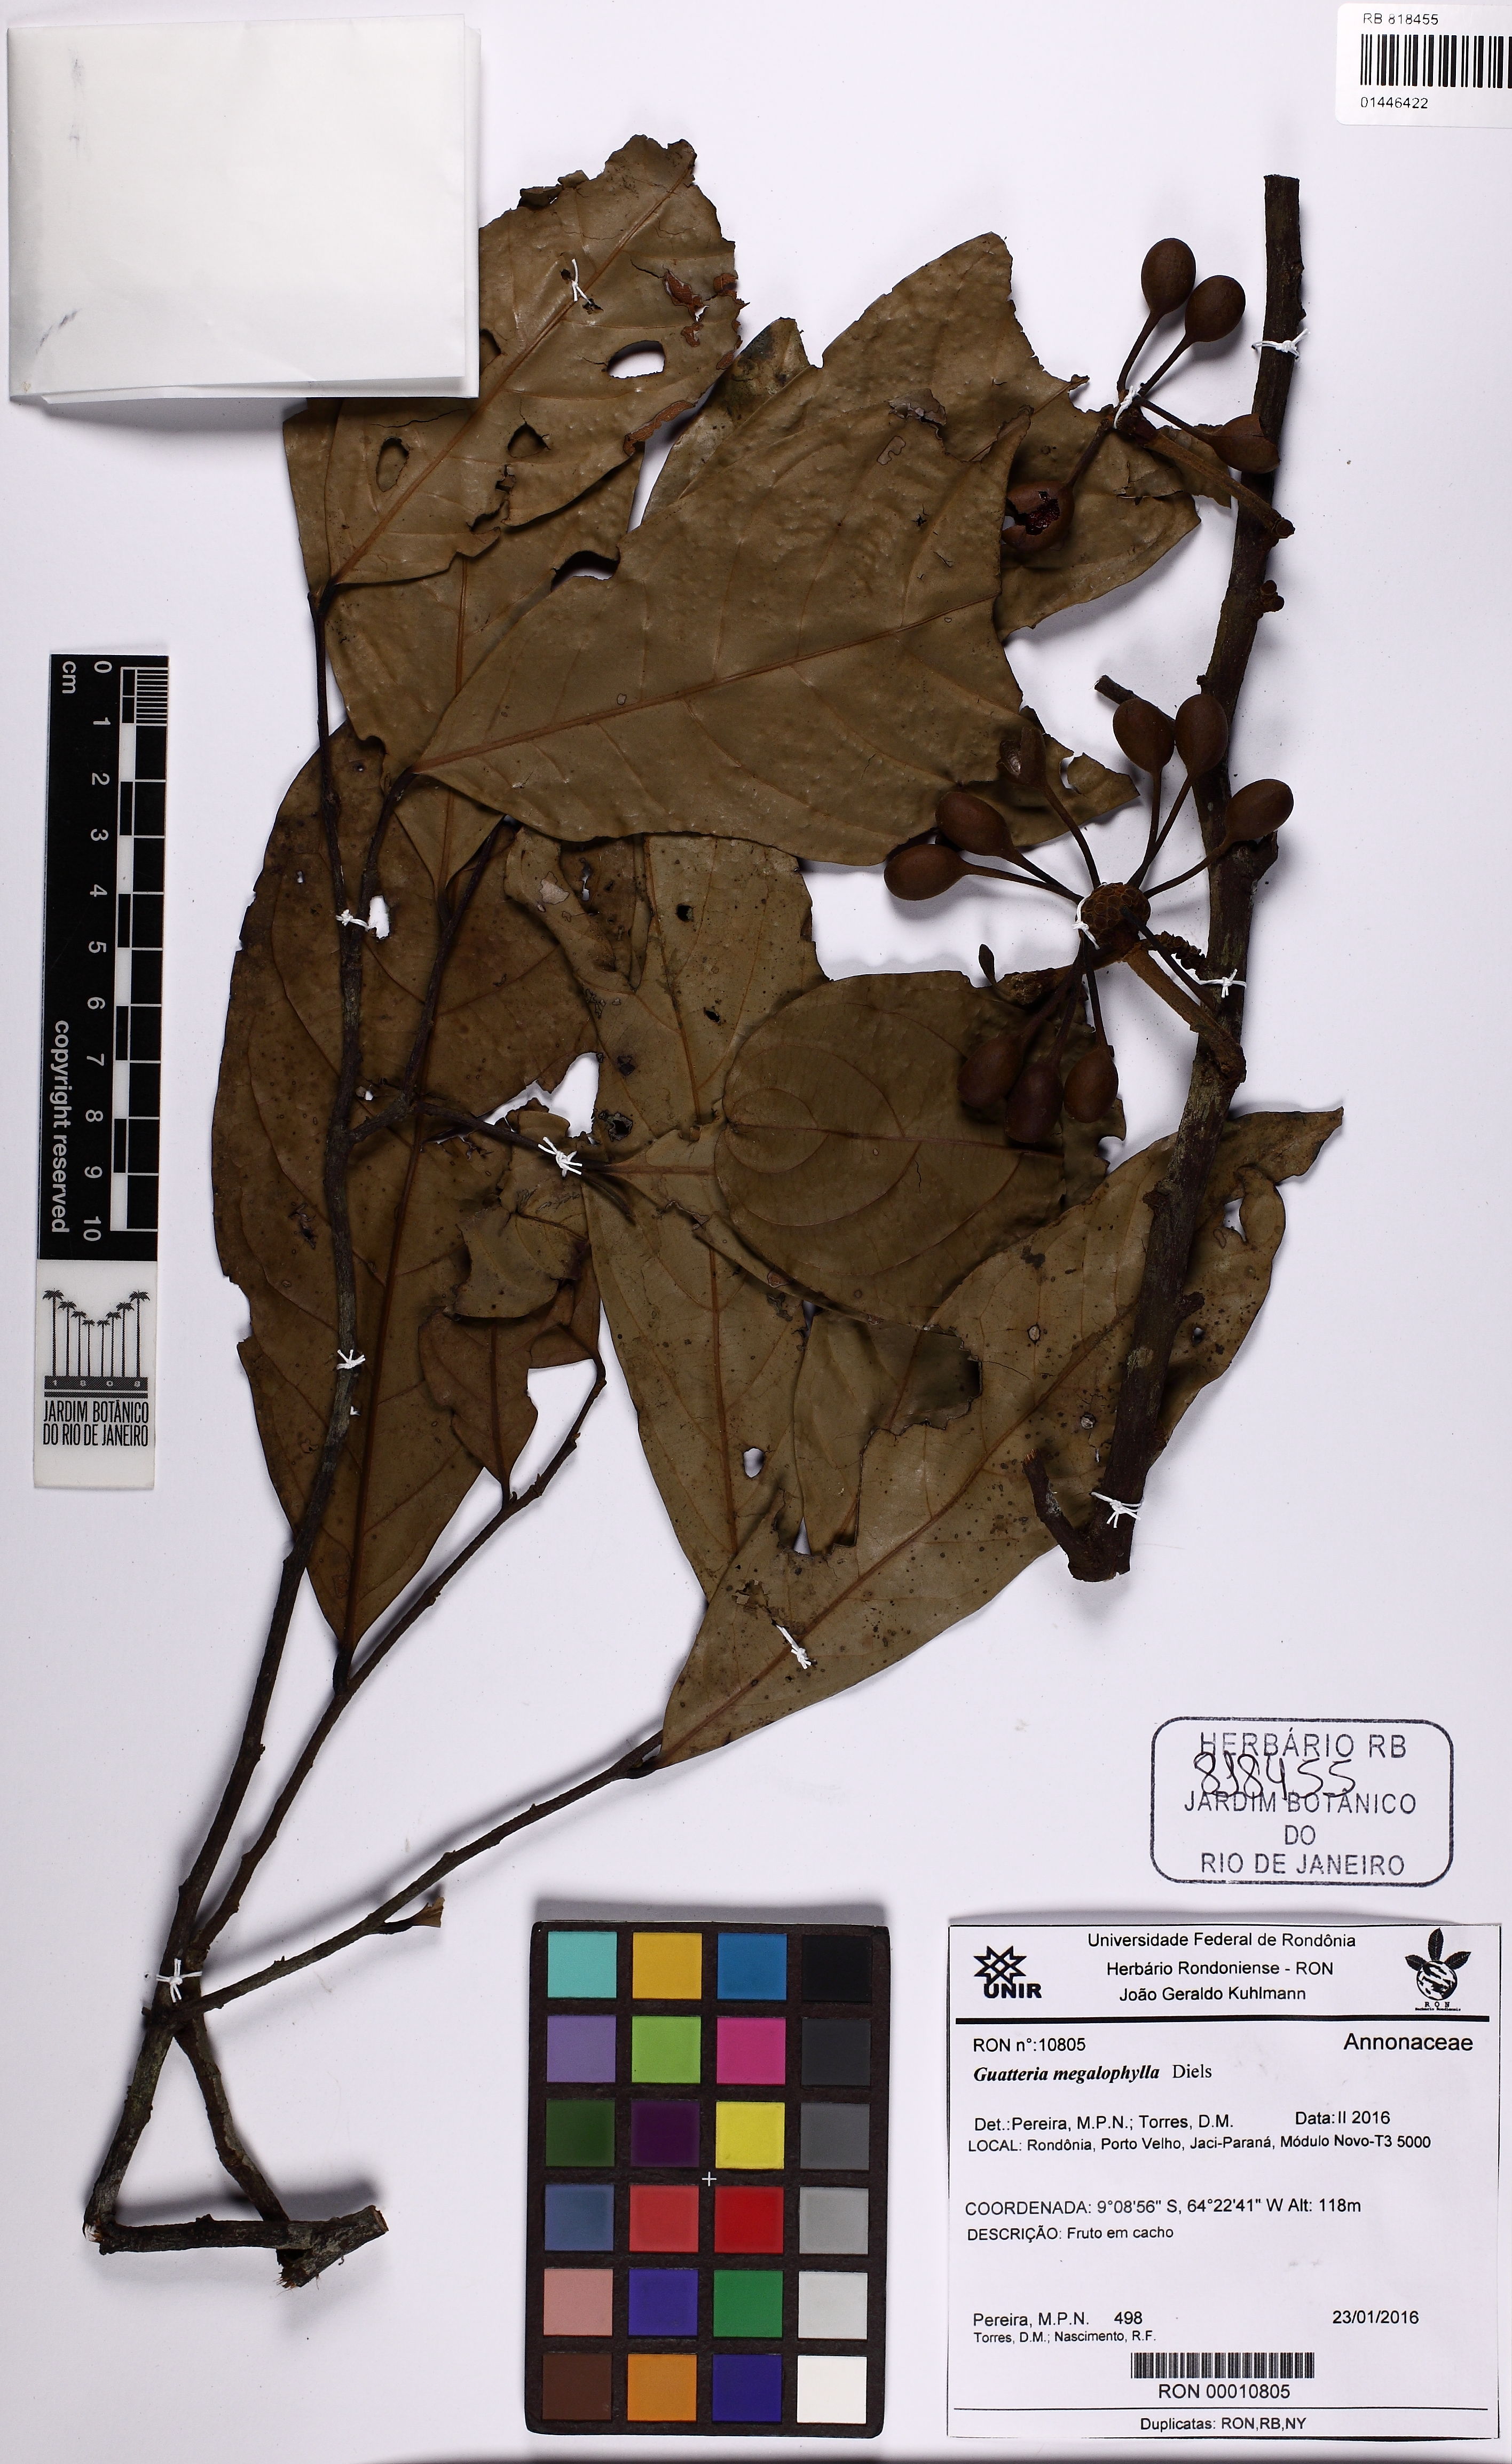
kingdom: Plantae
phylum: Tracheophyta
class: Magnoliopsida
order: Magnoliales
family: Annonaceae
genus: Guatteria
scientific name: Guatteria megalophylla
